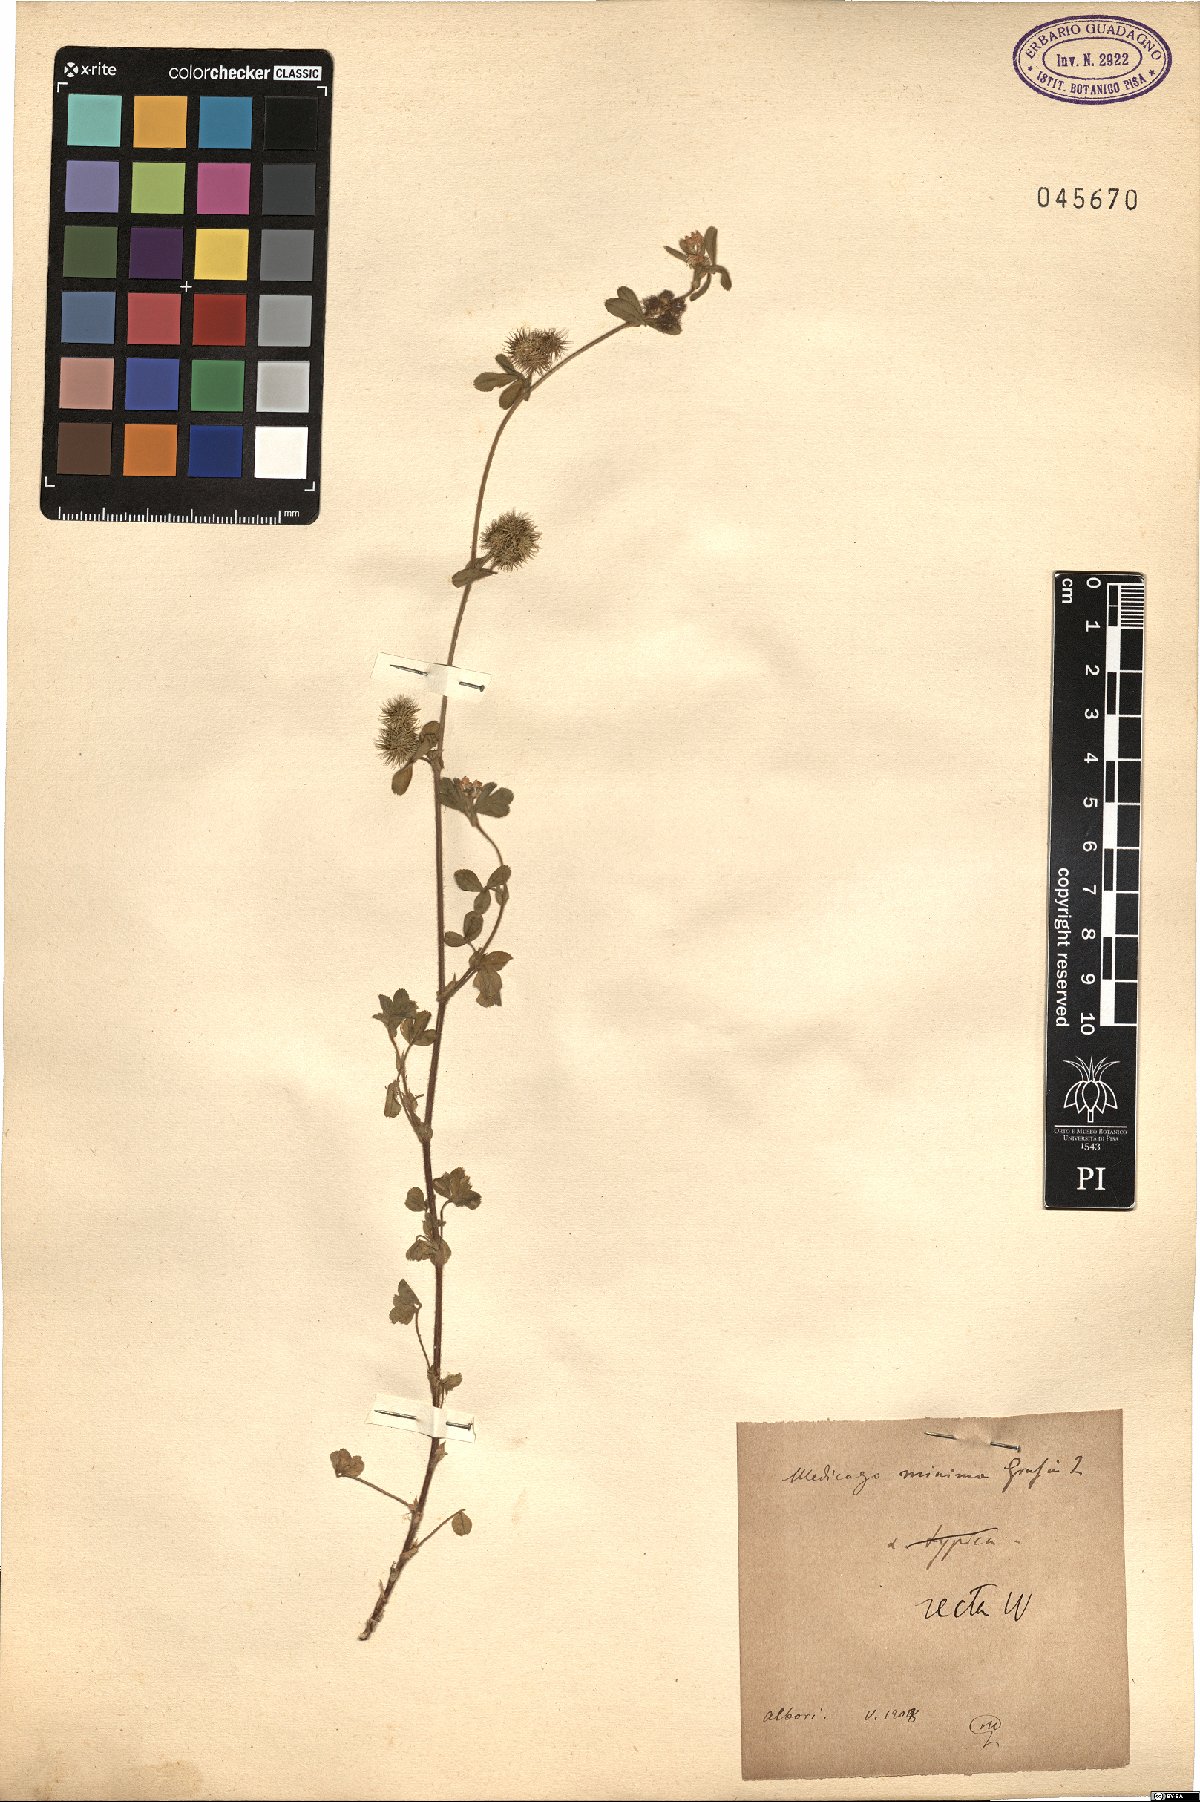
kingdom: Plantae
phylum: Tracheophyta
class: Magnoliopsida
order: Fabales
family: Fabaceae
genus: Medicago
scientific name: Medicago minima
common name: Little bur-clover
